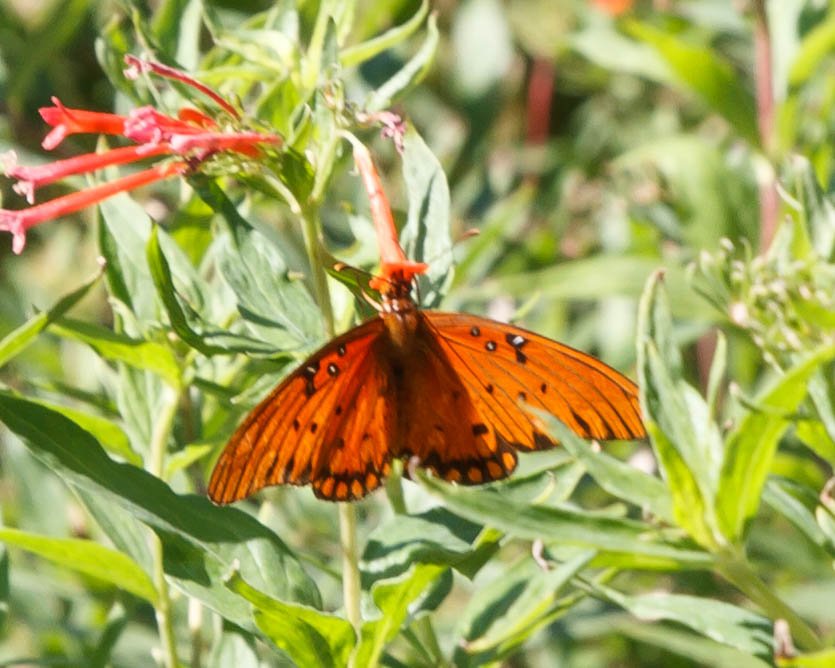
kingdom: Animalia
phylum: Arthropoda
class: Insecta
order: Lepidoptera
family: Nymphalidae
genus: Dione
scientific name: Dione vanillae
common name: Gulf Fritillary
